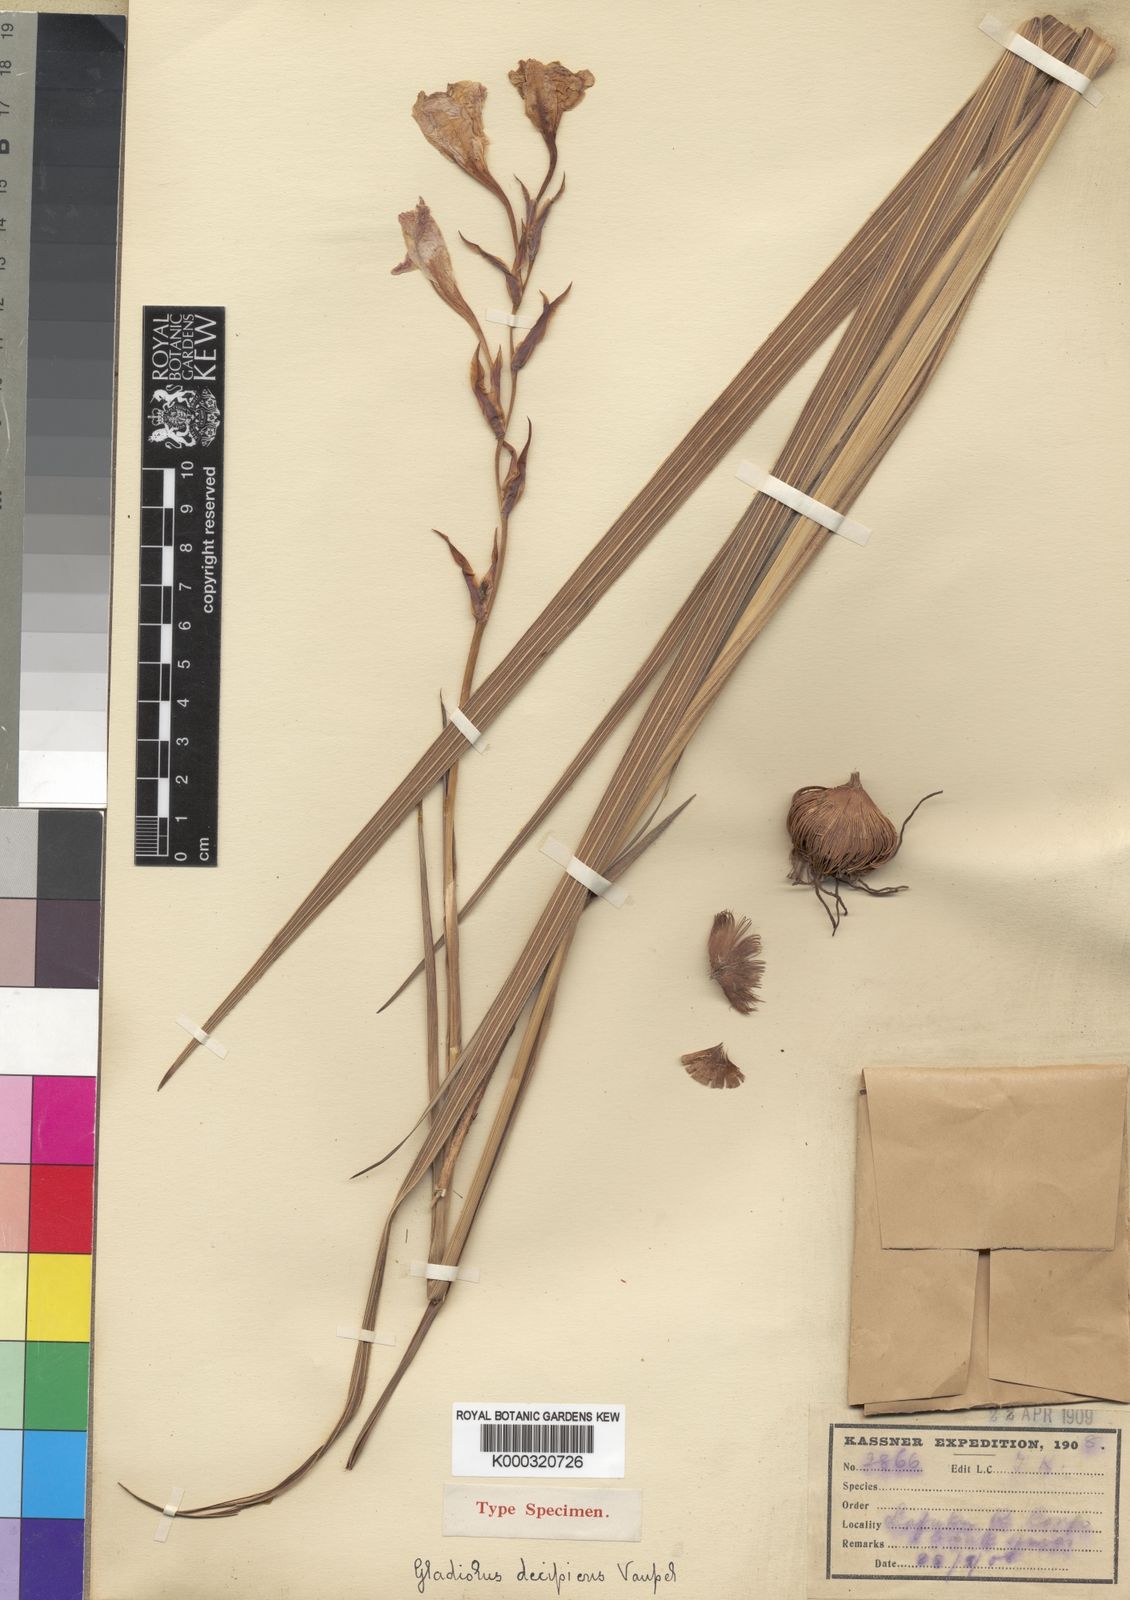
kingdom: Plantae
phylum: Tracheophyta
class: Liliopsida
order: Asparagales
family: Iridaceae
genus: Gladiolus
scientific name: Gladiolus puberulus
